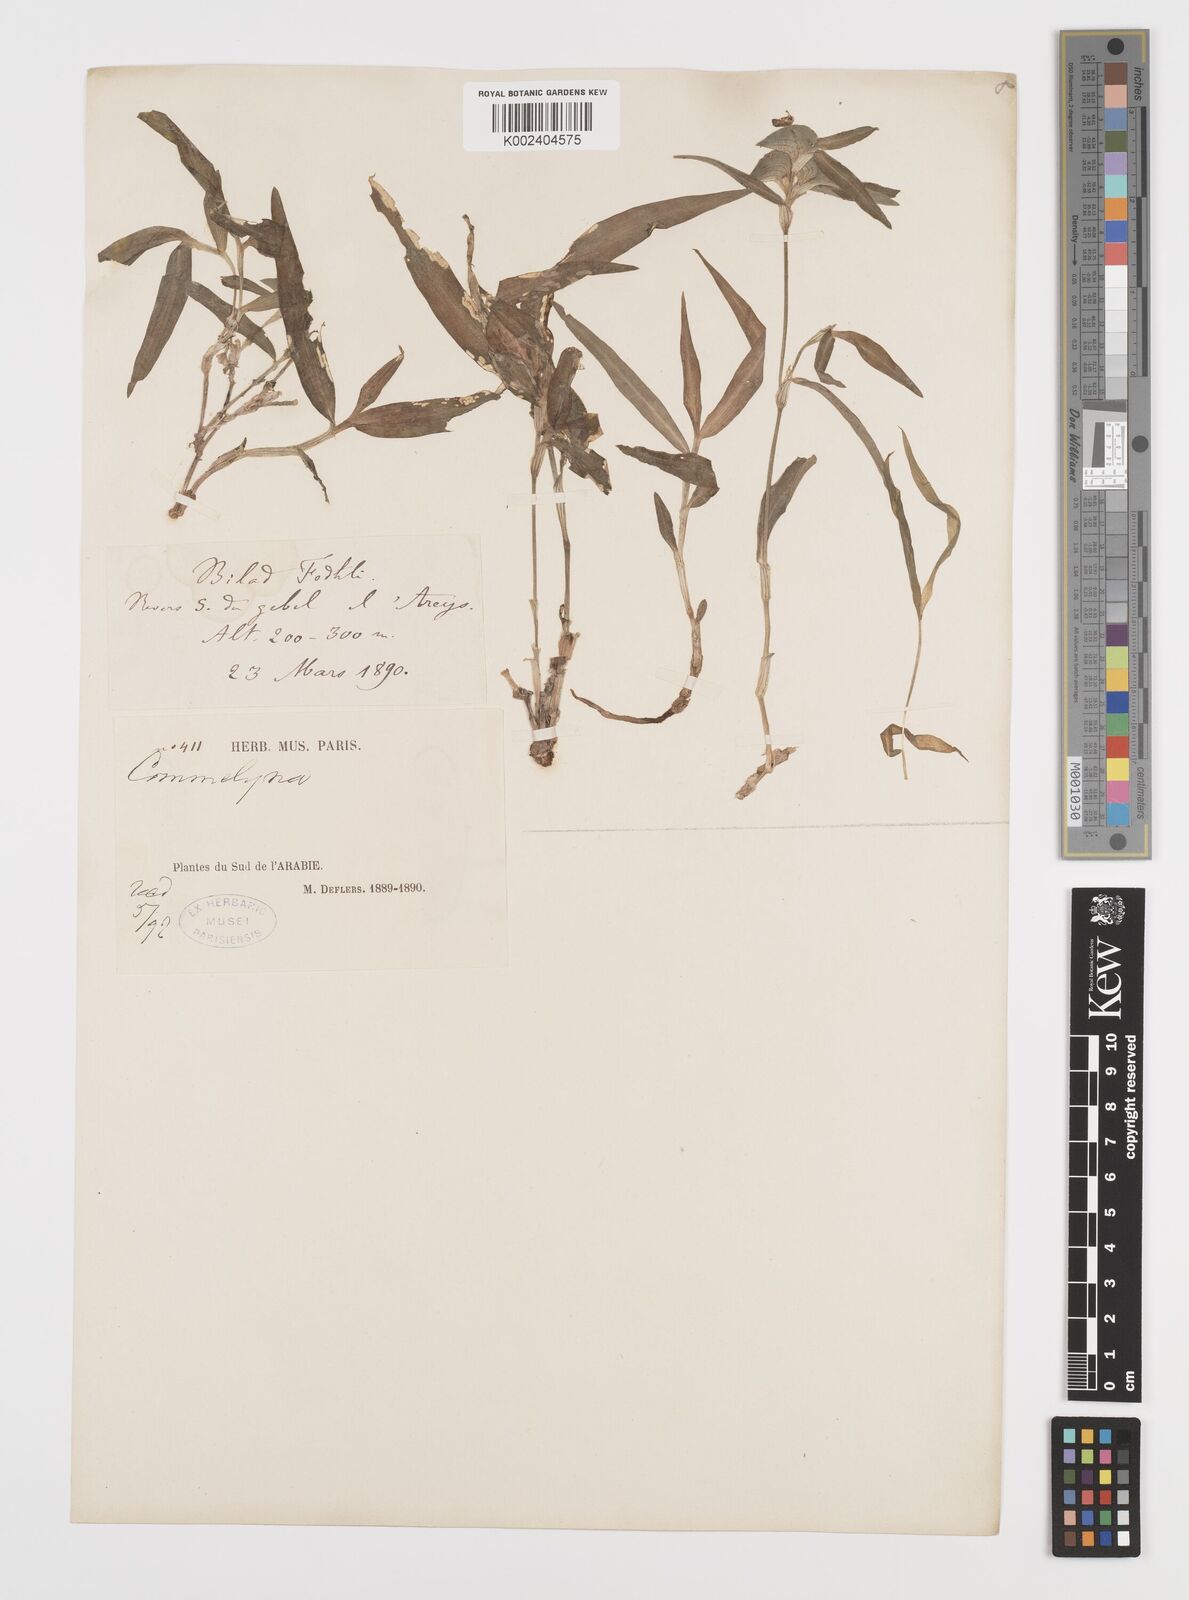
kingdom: Plantae
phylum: Tracheophyta
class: Liliopsida
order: Commelinales
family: Commelinaceae
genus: Commelina
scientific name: Commelina albescens
